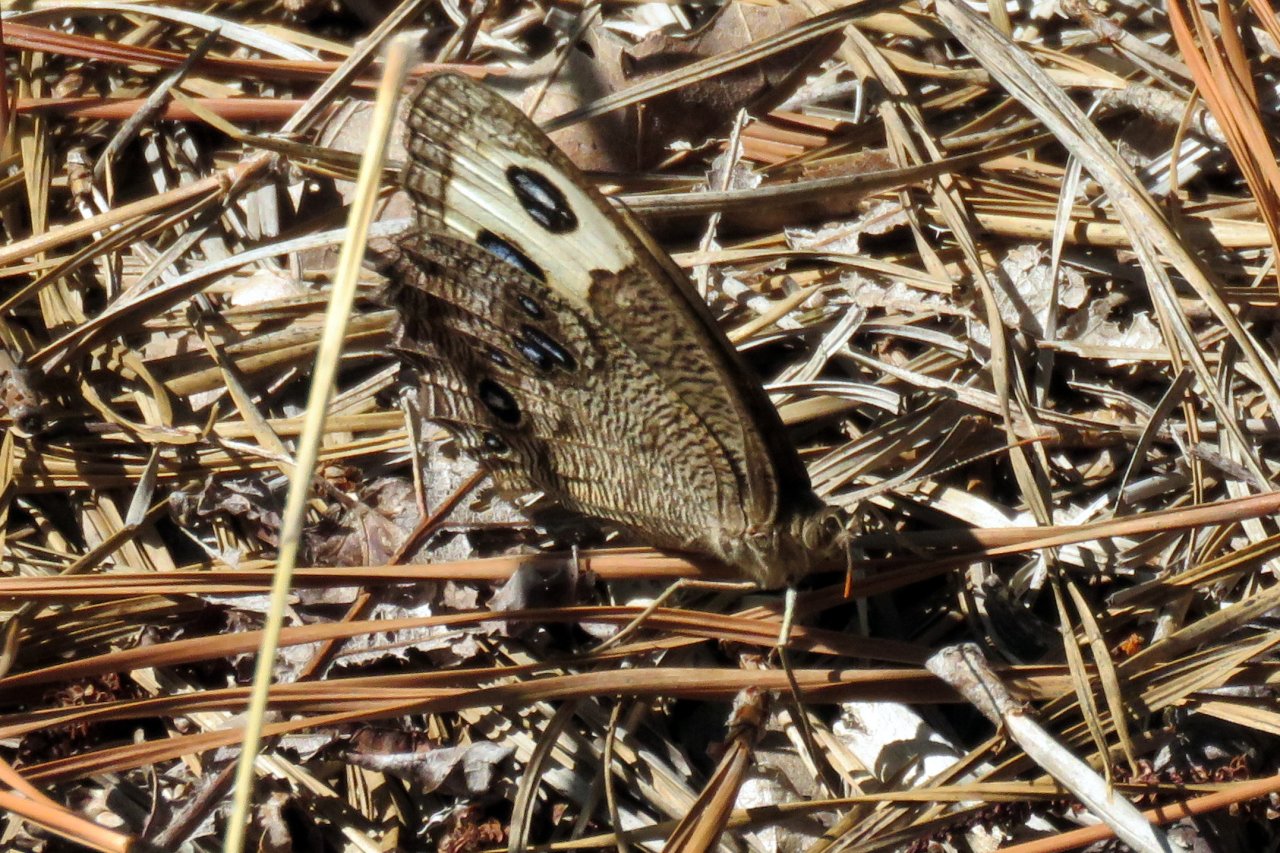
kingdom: Animalia
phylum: Arthropoda
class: Insecta
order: Lepidoptera
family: Nymphalidae
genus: Cercyonis
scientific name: Cercyonis pegala
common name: Common Wood-Nymph
